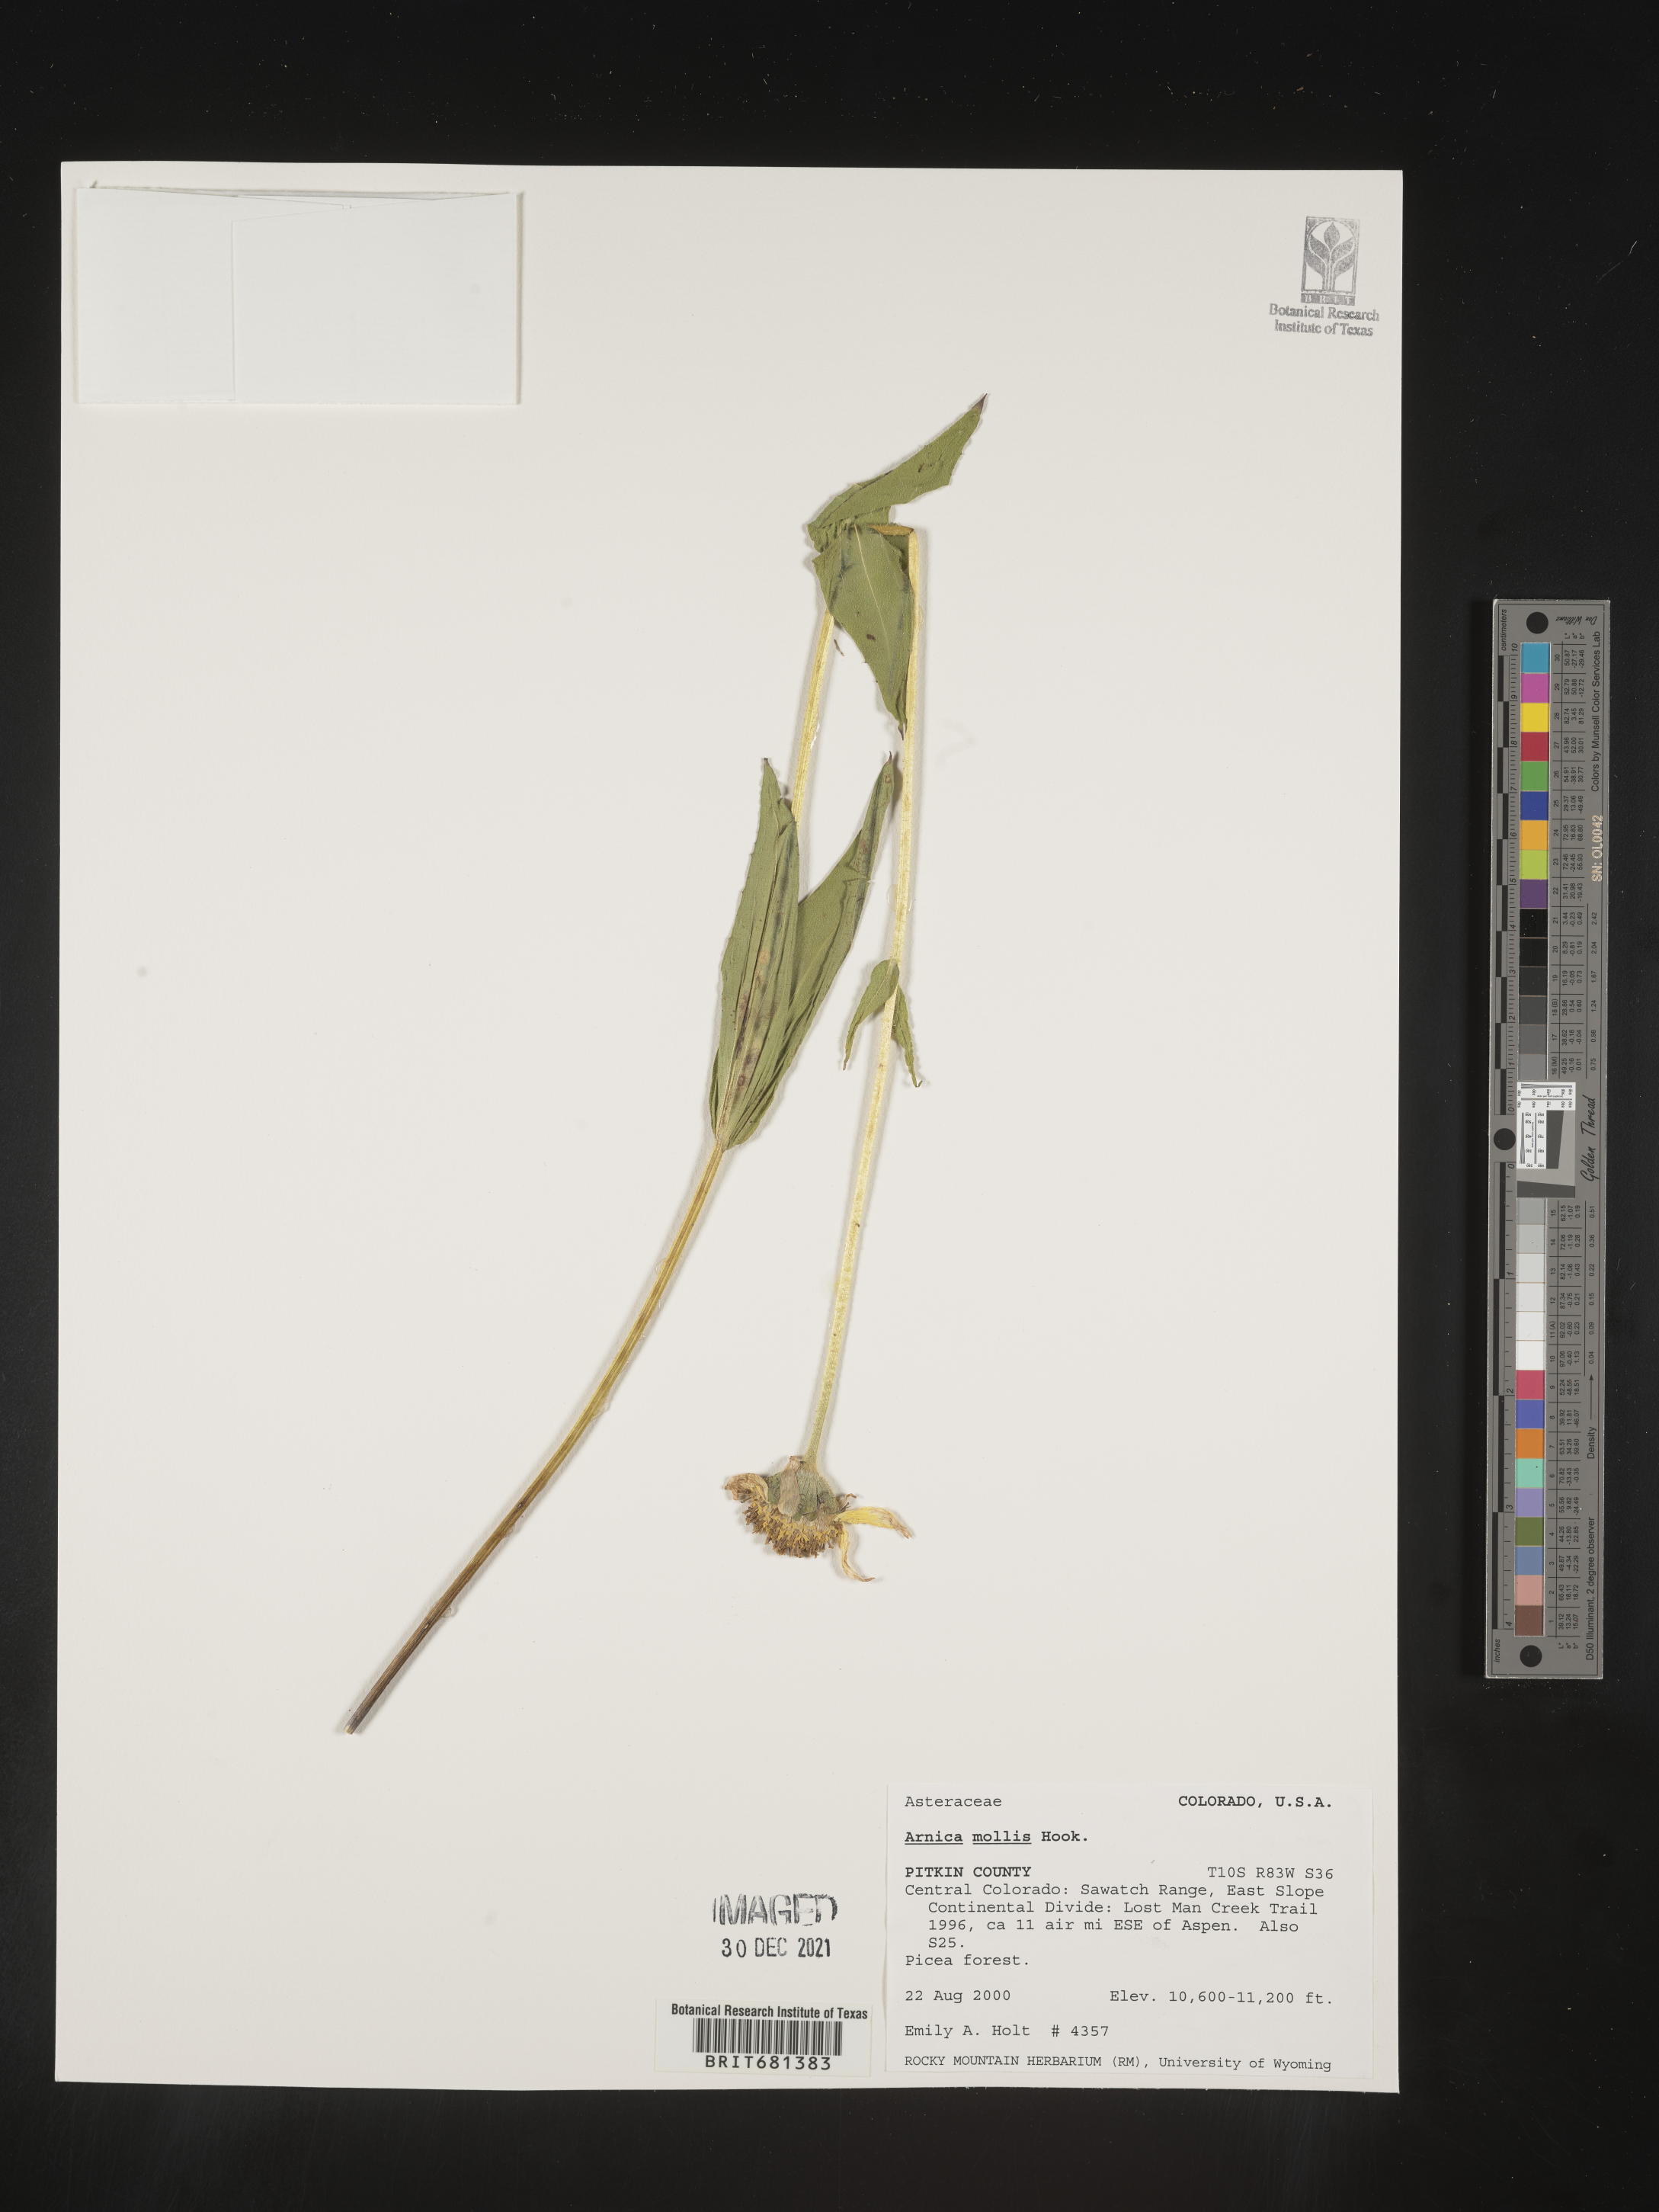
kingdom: Plantae
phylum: Tracheophyta
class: Magnoliopsida
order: Asterales
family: Asteraceae
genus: Arnica
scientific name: Arnica mollis
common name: Hairy arnica
